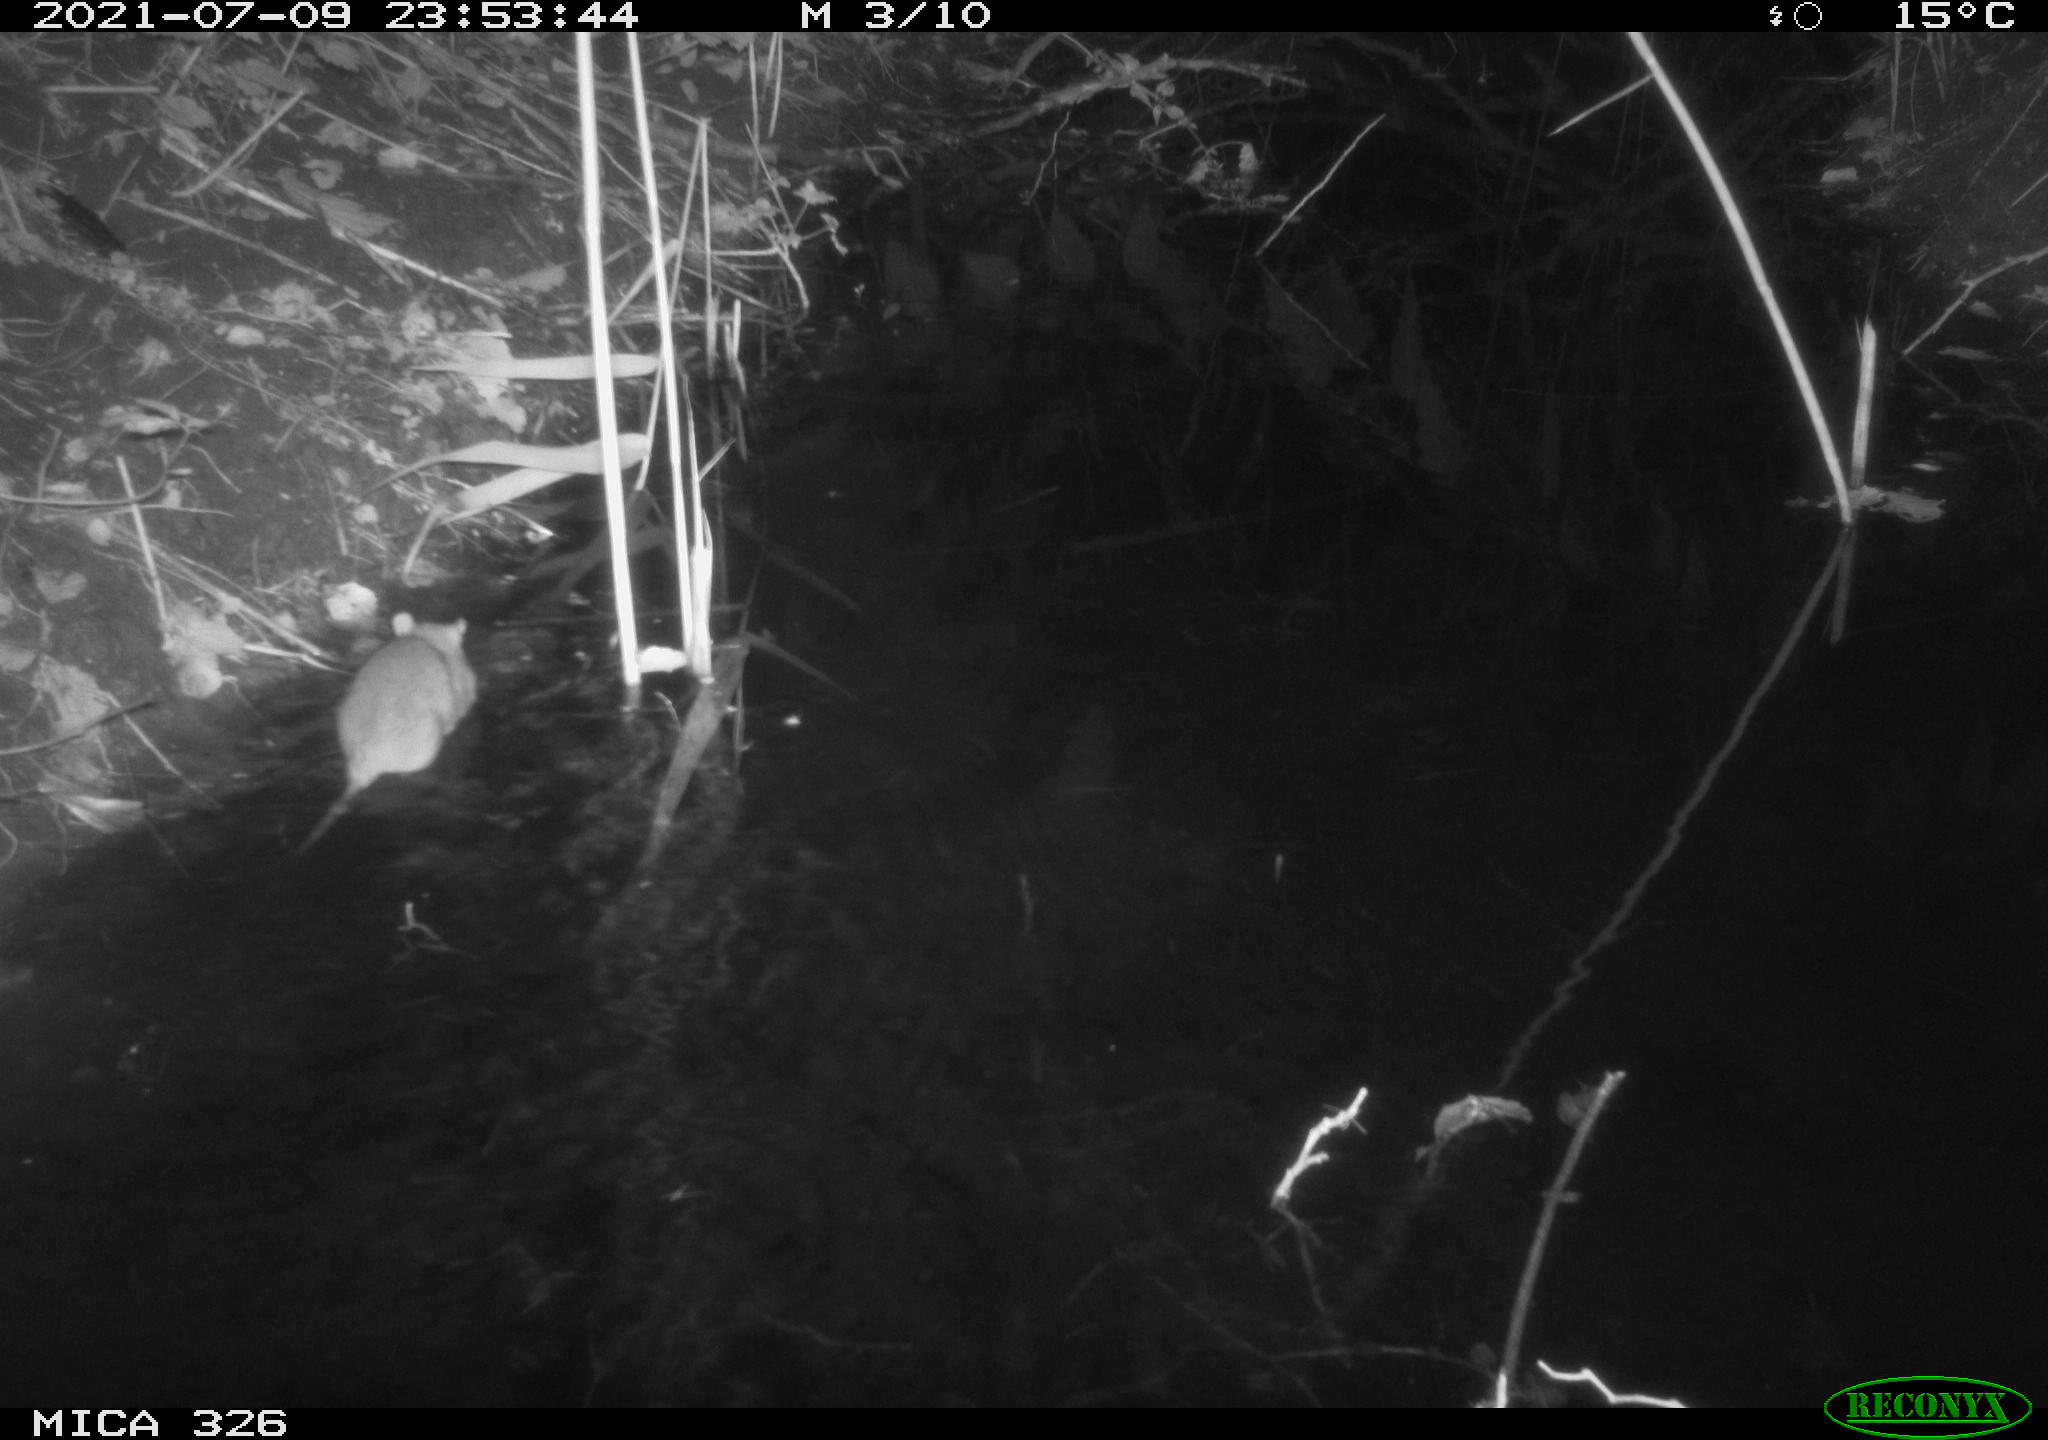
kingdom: Animalia
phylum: Chordata
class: Mammalia
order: Rodentia
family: Muridae
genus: Rattus
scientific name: Rattus norvegicus
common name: Brown rat
